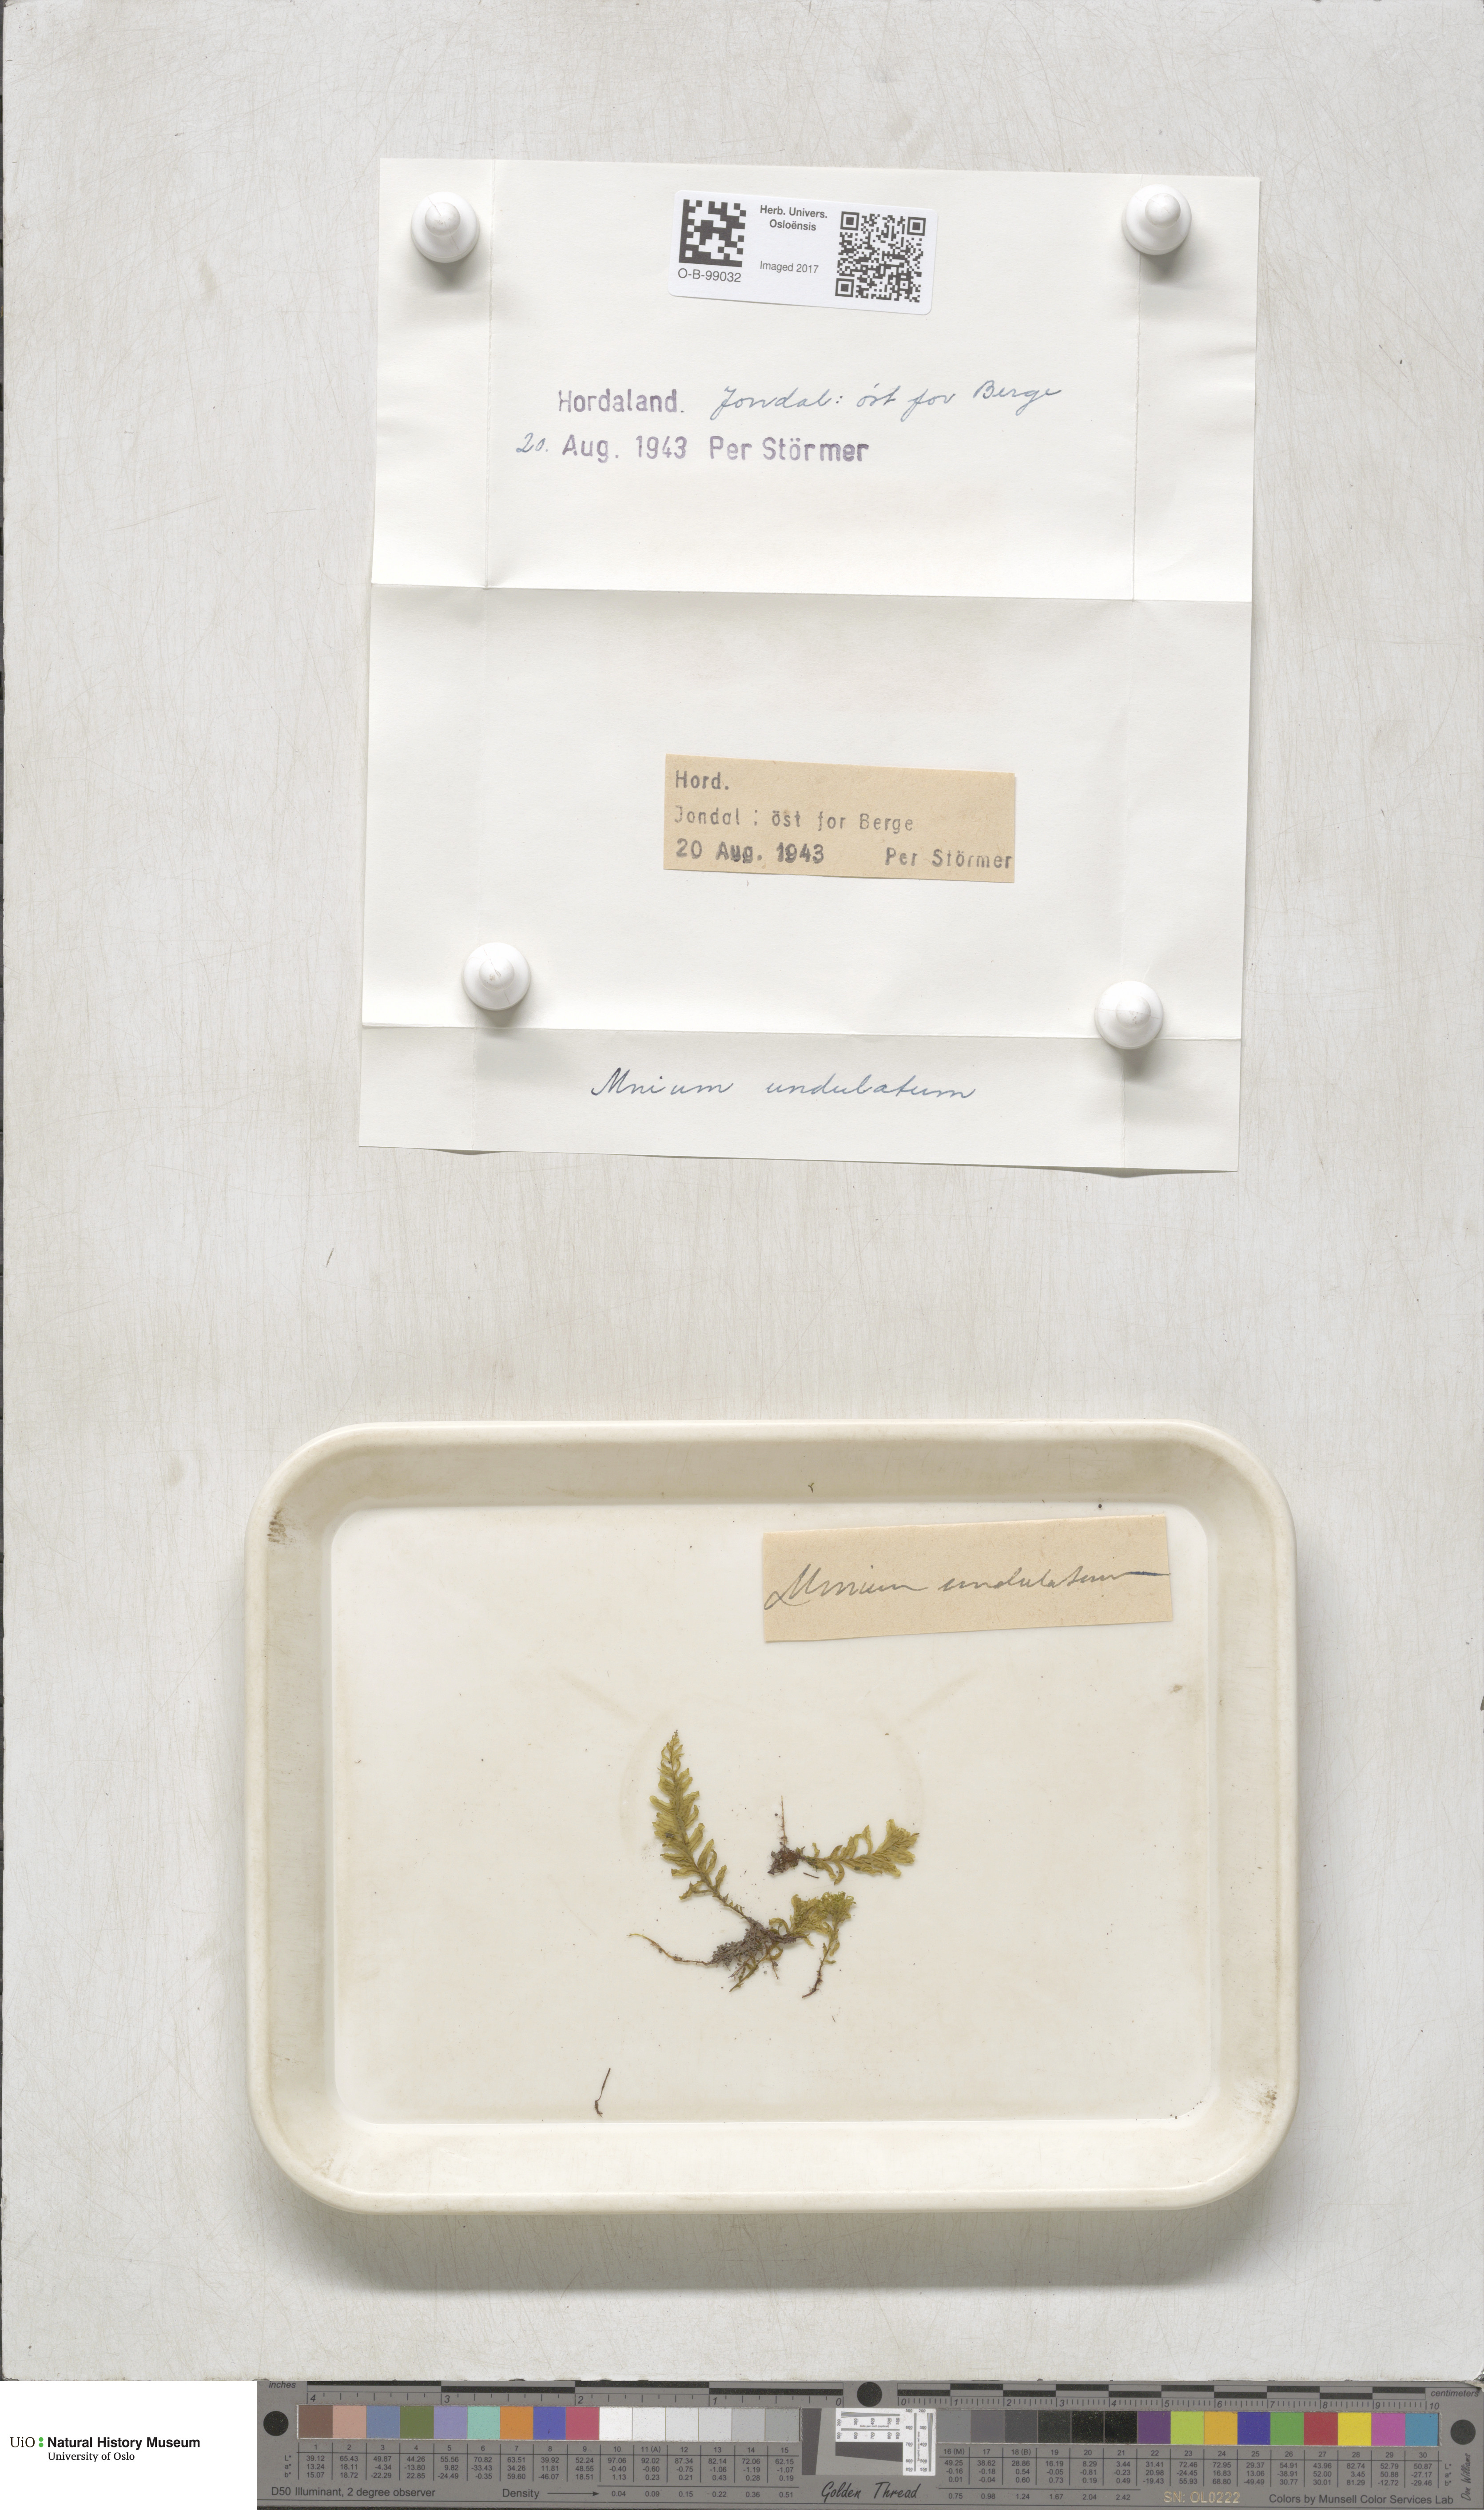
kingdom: Plantae
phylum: Bryophyta
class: Bryopsida
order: Bryales
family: Mniaceae
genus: Plagiomnium
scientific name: Plagiomnium undulatum
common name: Hart's-tongue thyme-moss
